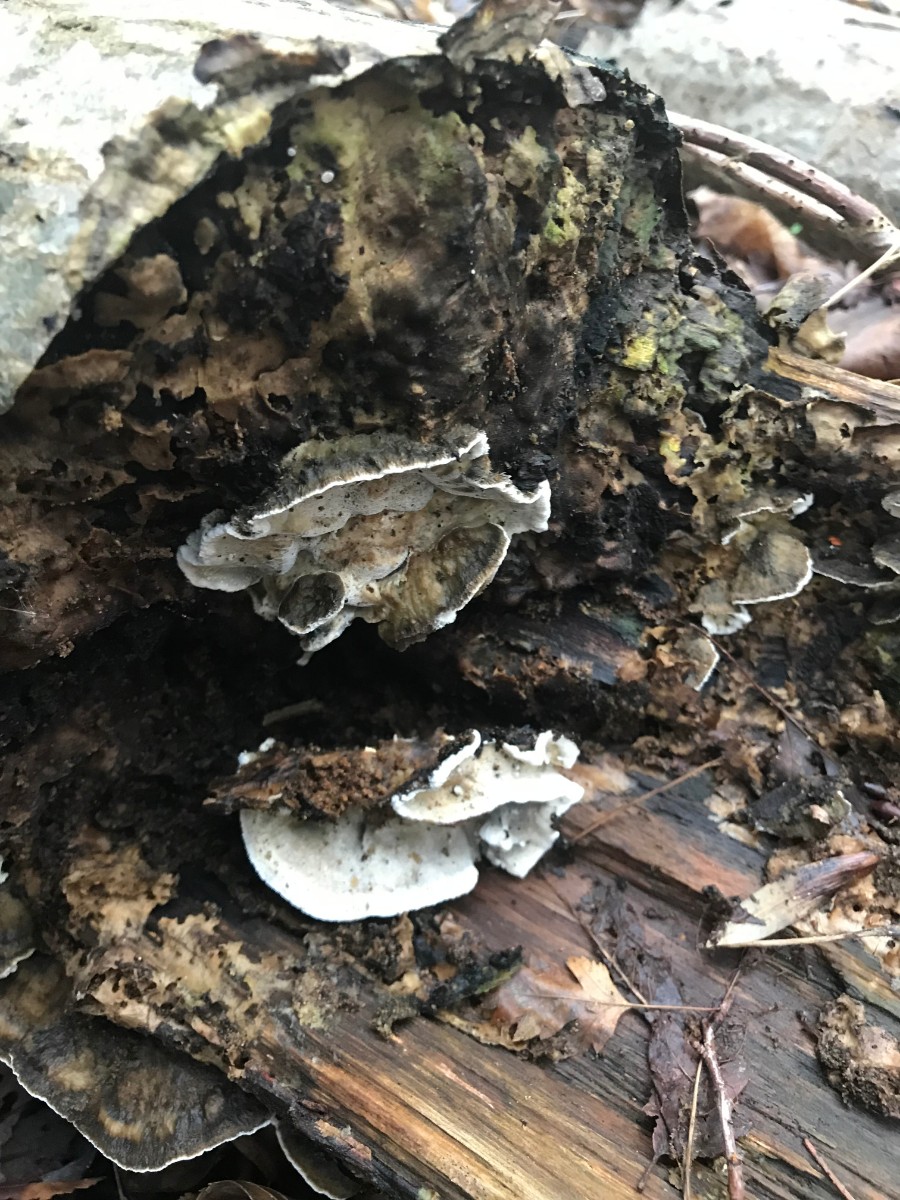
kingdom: Fungi
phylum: Basidiomycota
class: Agaricomycetes
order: Polyporales
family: Phanerochaetaceae
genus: Bjerkandera
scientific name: Bjerkandera adusta
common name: sveden sodporesvamp
